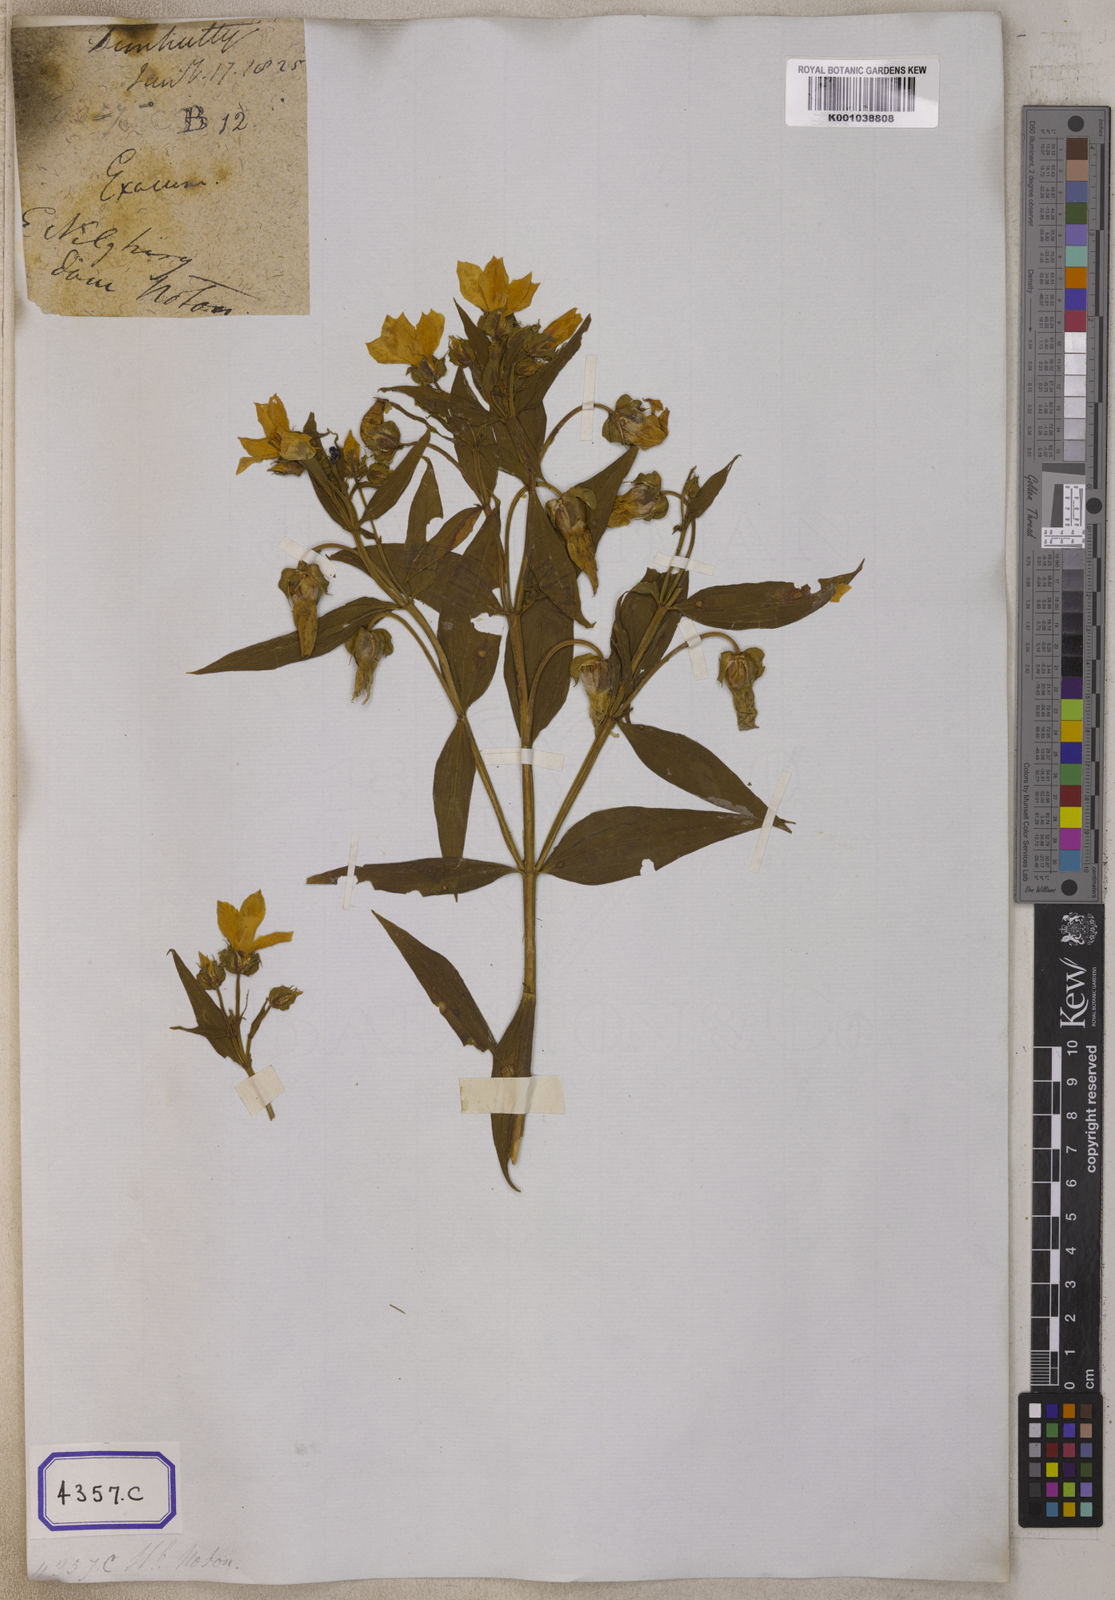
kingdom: Plantae
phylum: Tracheophyta
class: Magnoliopsida
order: Gentianales
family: Gentianaceae
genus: Exacum
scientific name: Exacum
